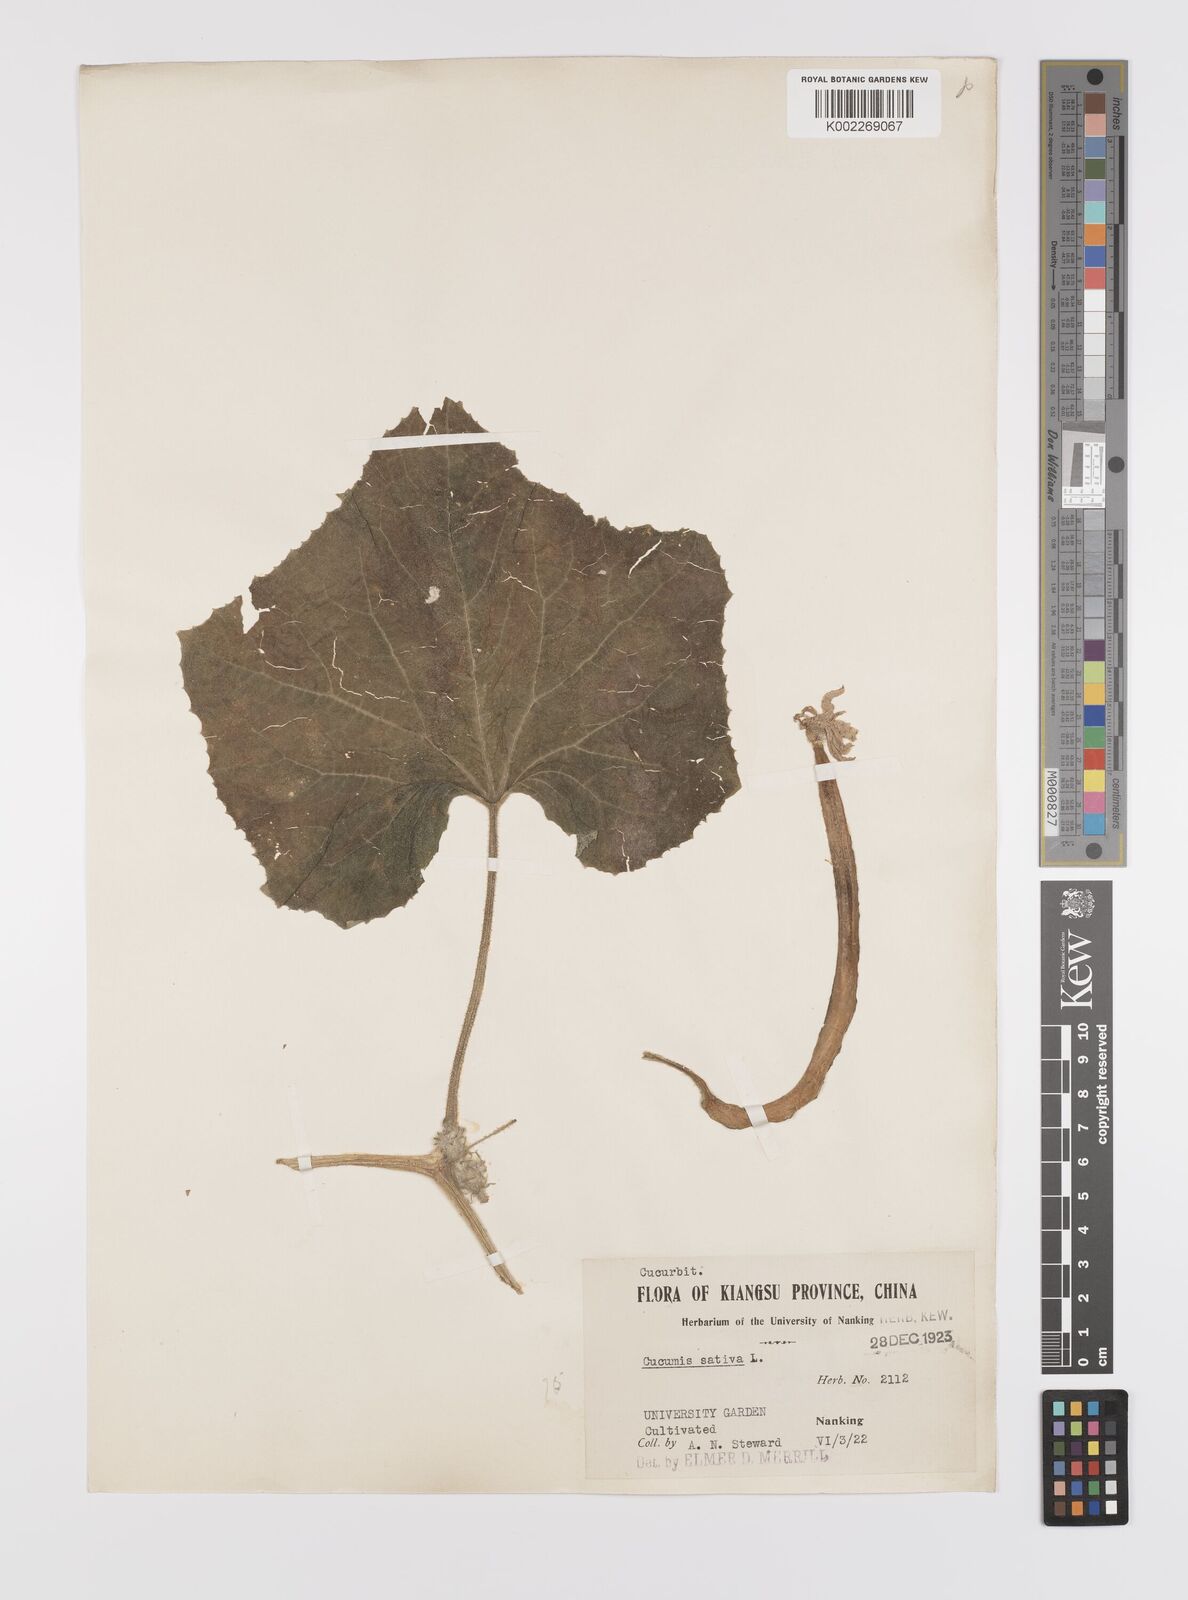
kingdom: Plantae
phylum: Tracheophyta
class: Magnoliopsida
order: Cucurbitales
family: Cucurbitaceae
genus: Cucumis
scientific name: Cucumis sativus
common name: Cucumber
